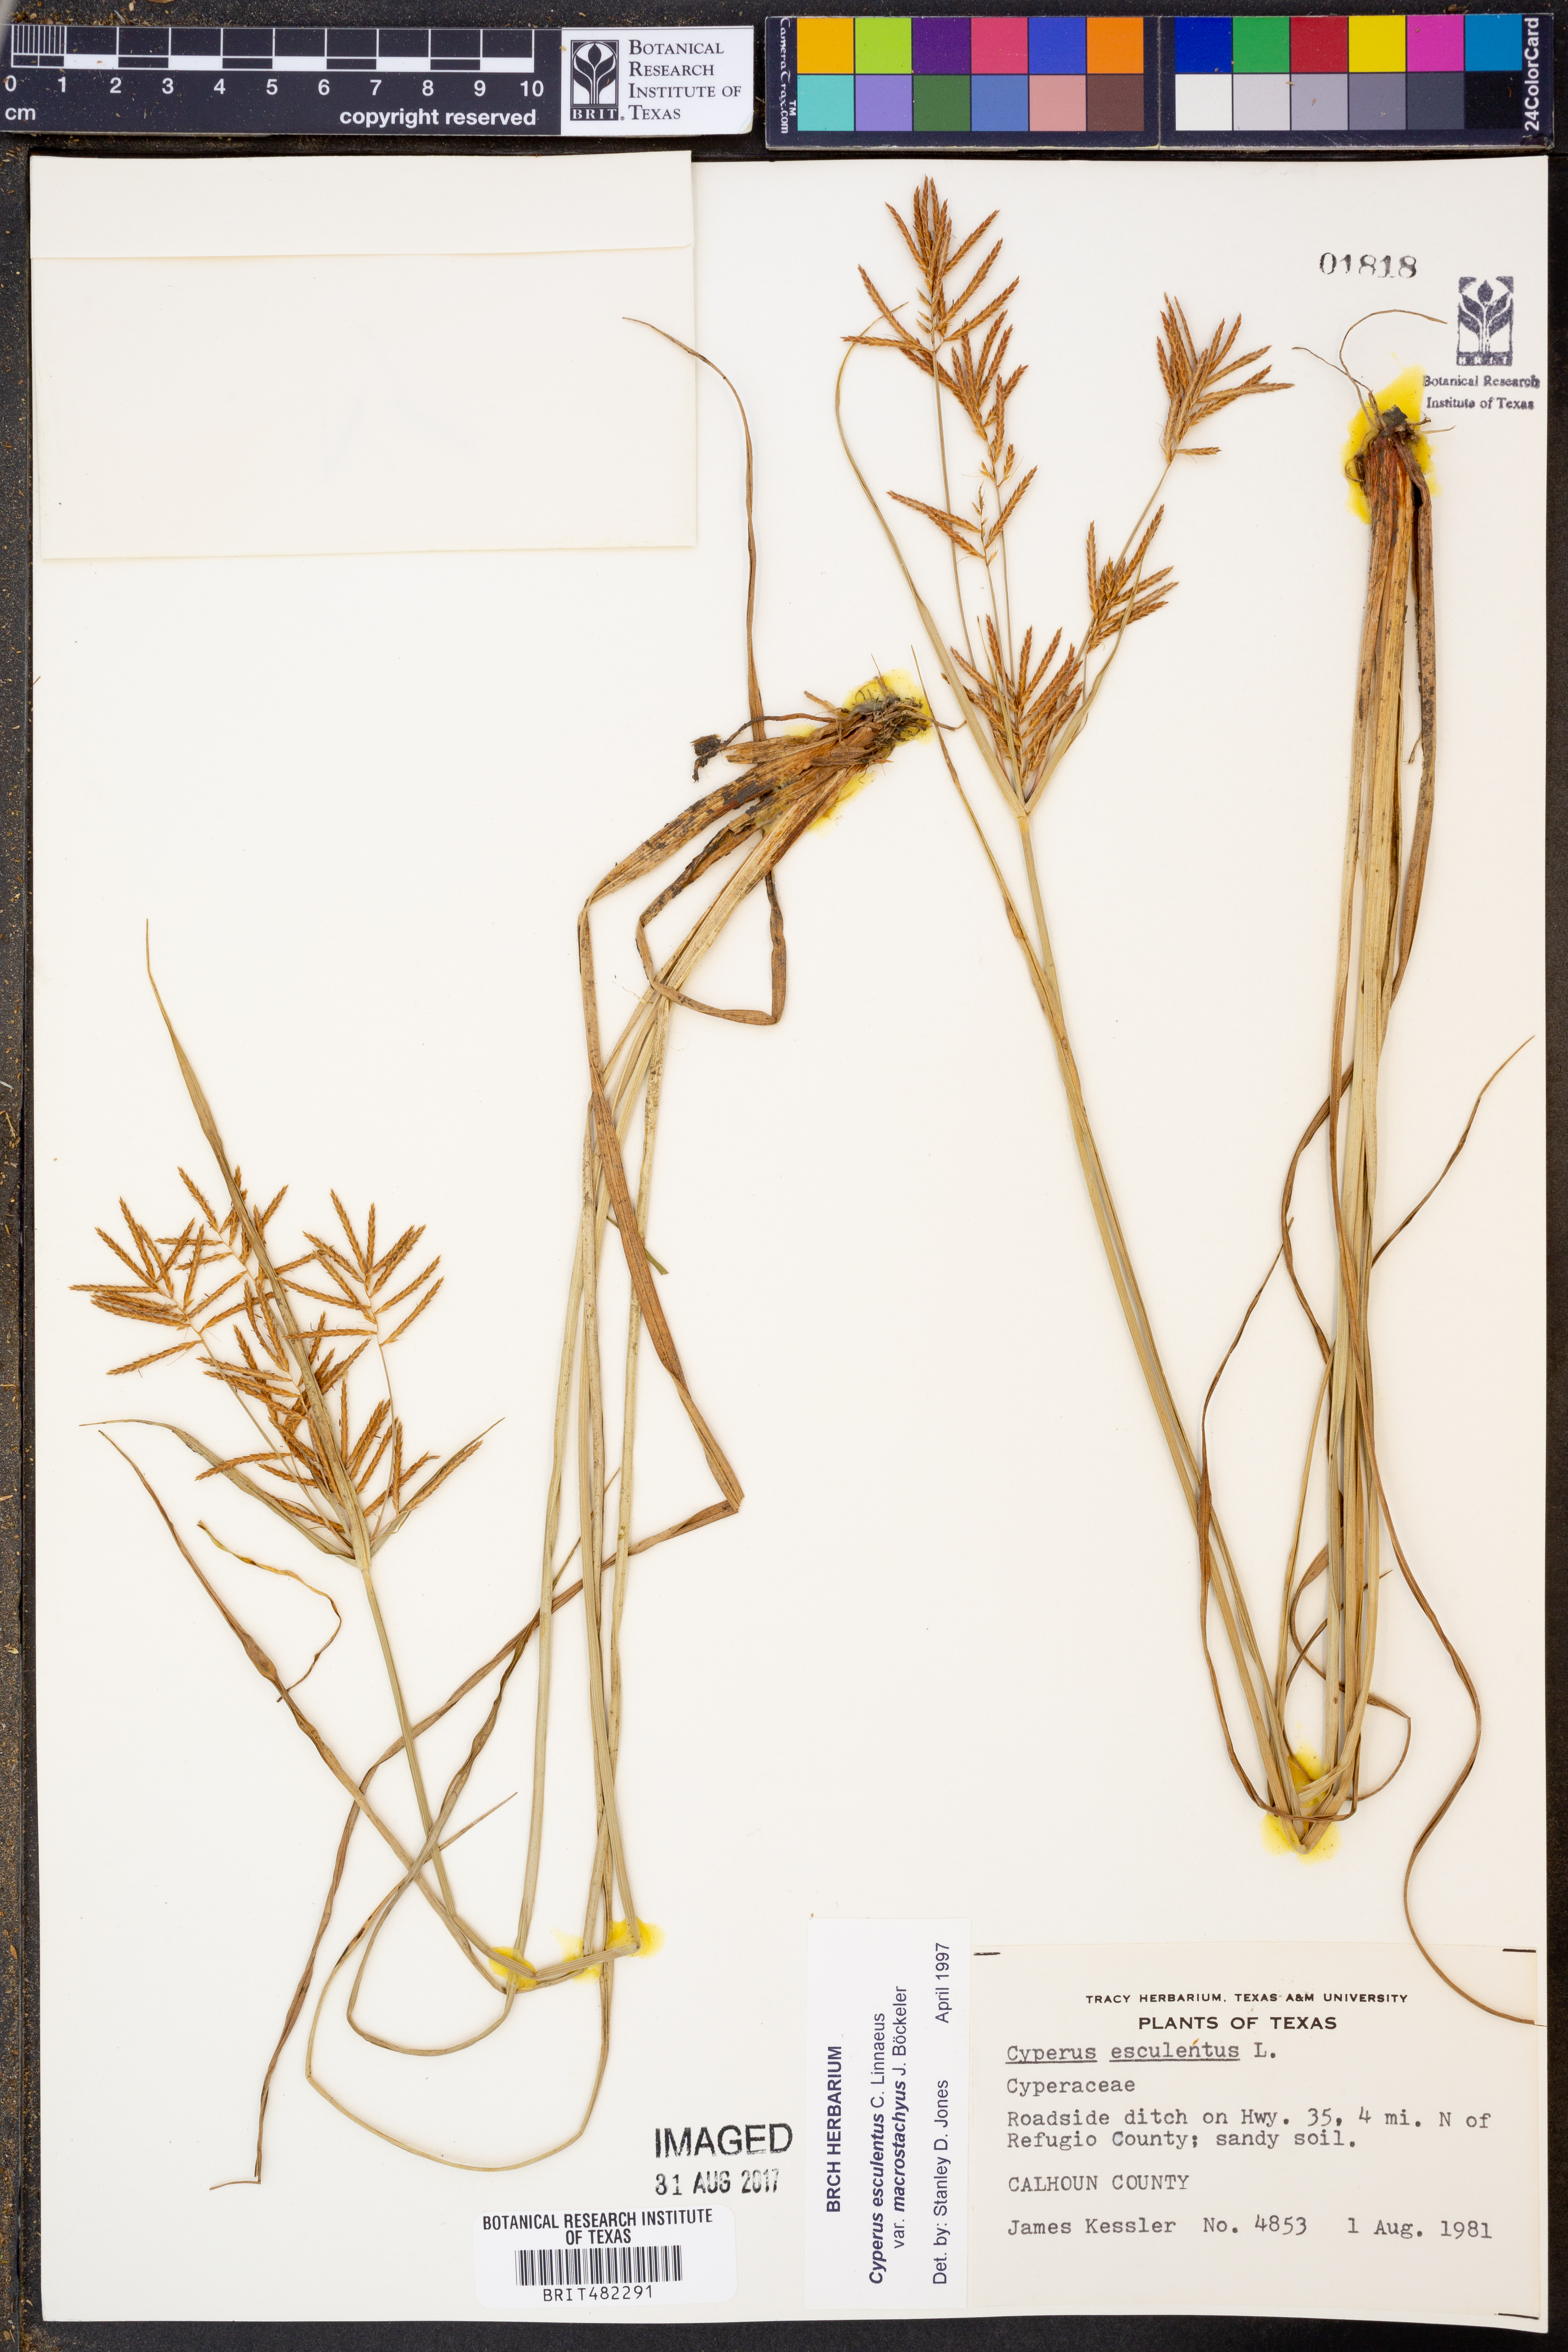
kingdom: Plantae
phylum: Tracheophyta
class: Liliopsida
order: Poales
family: Cyperaceae
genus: Cyperus
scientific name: Cyperus esculentus
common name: Yellow nutsedge
